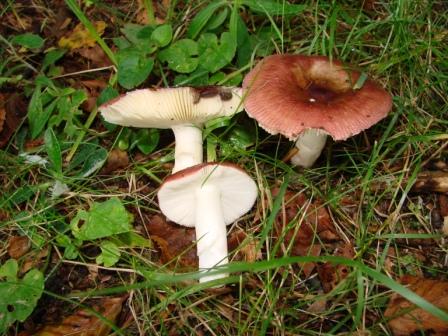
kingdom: Fungi
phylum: Basidiomycota
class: Agaricomycetes
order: Russulales
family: Russulaceae
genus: Russula
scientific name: Russula nitida
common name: året skørhat
